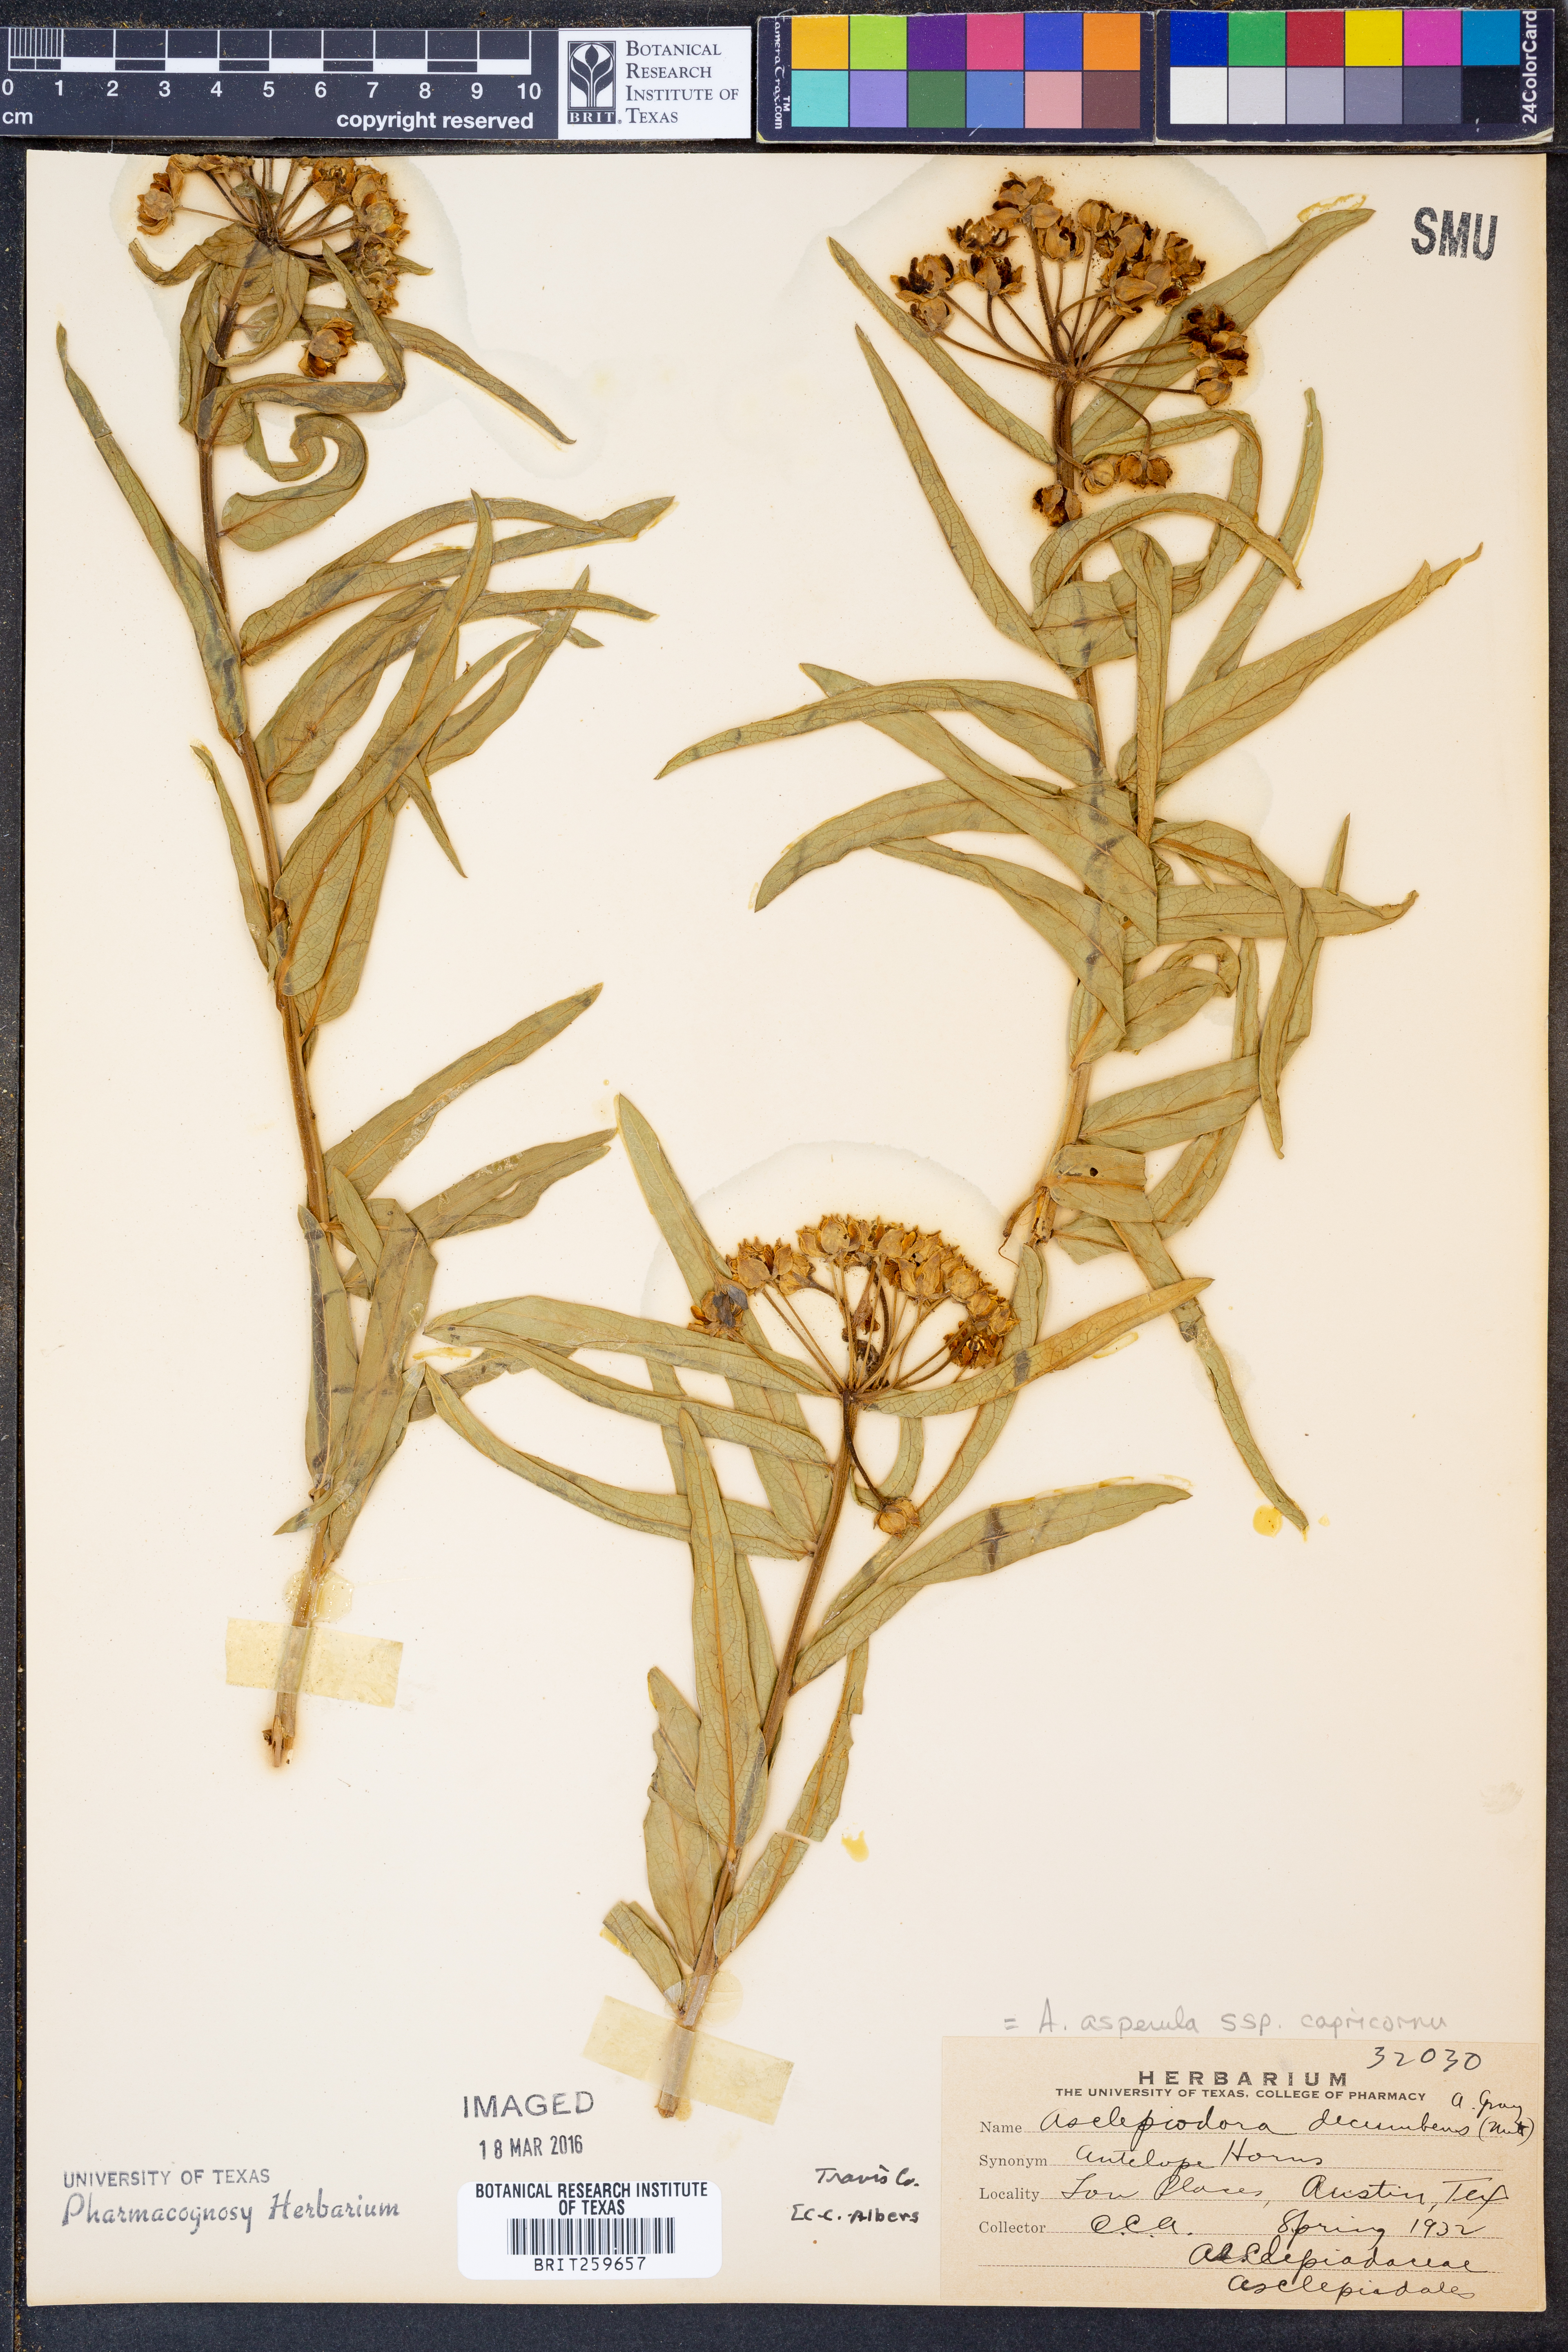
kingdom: Plantae
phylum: Tracheophyta
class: Magnoliopsida
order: Gentianales
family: Apocynaceae
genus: Asclepias
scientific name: Asclepias asperula
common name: Antelope horns
